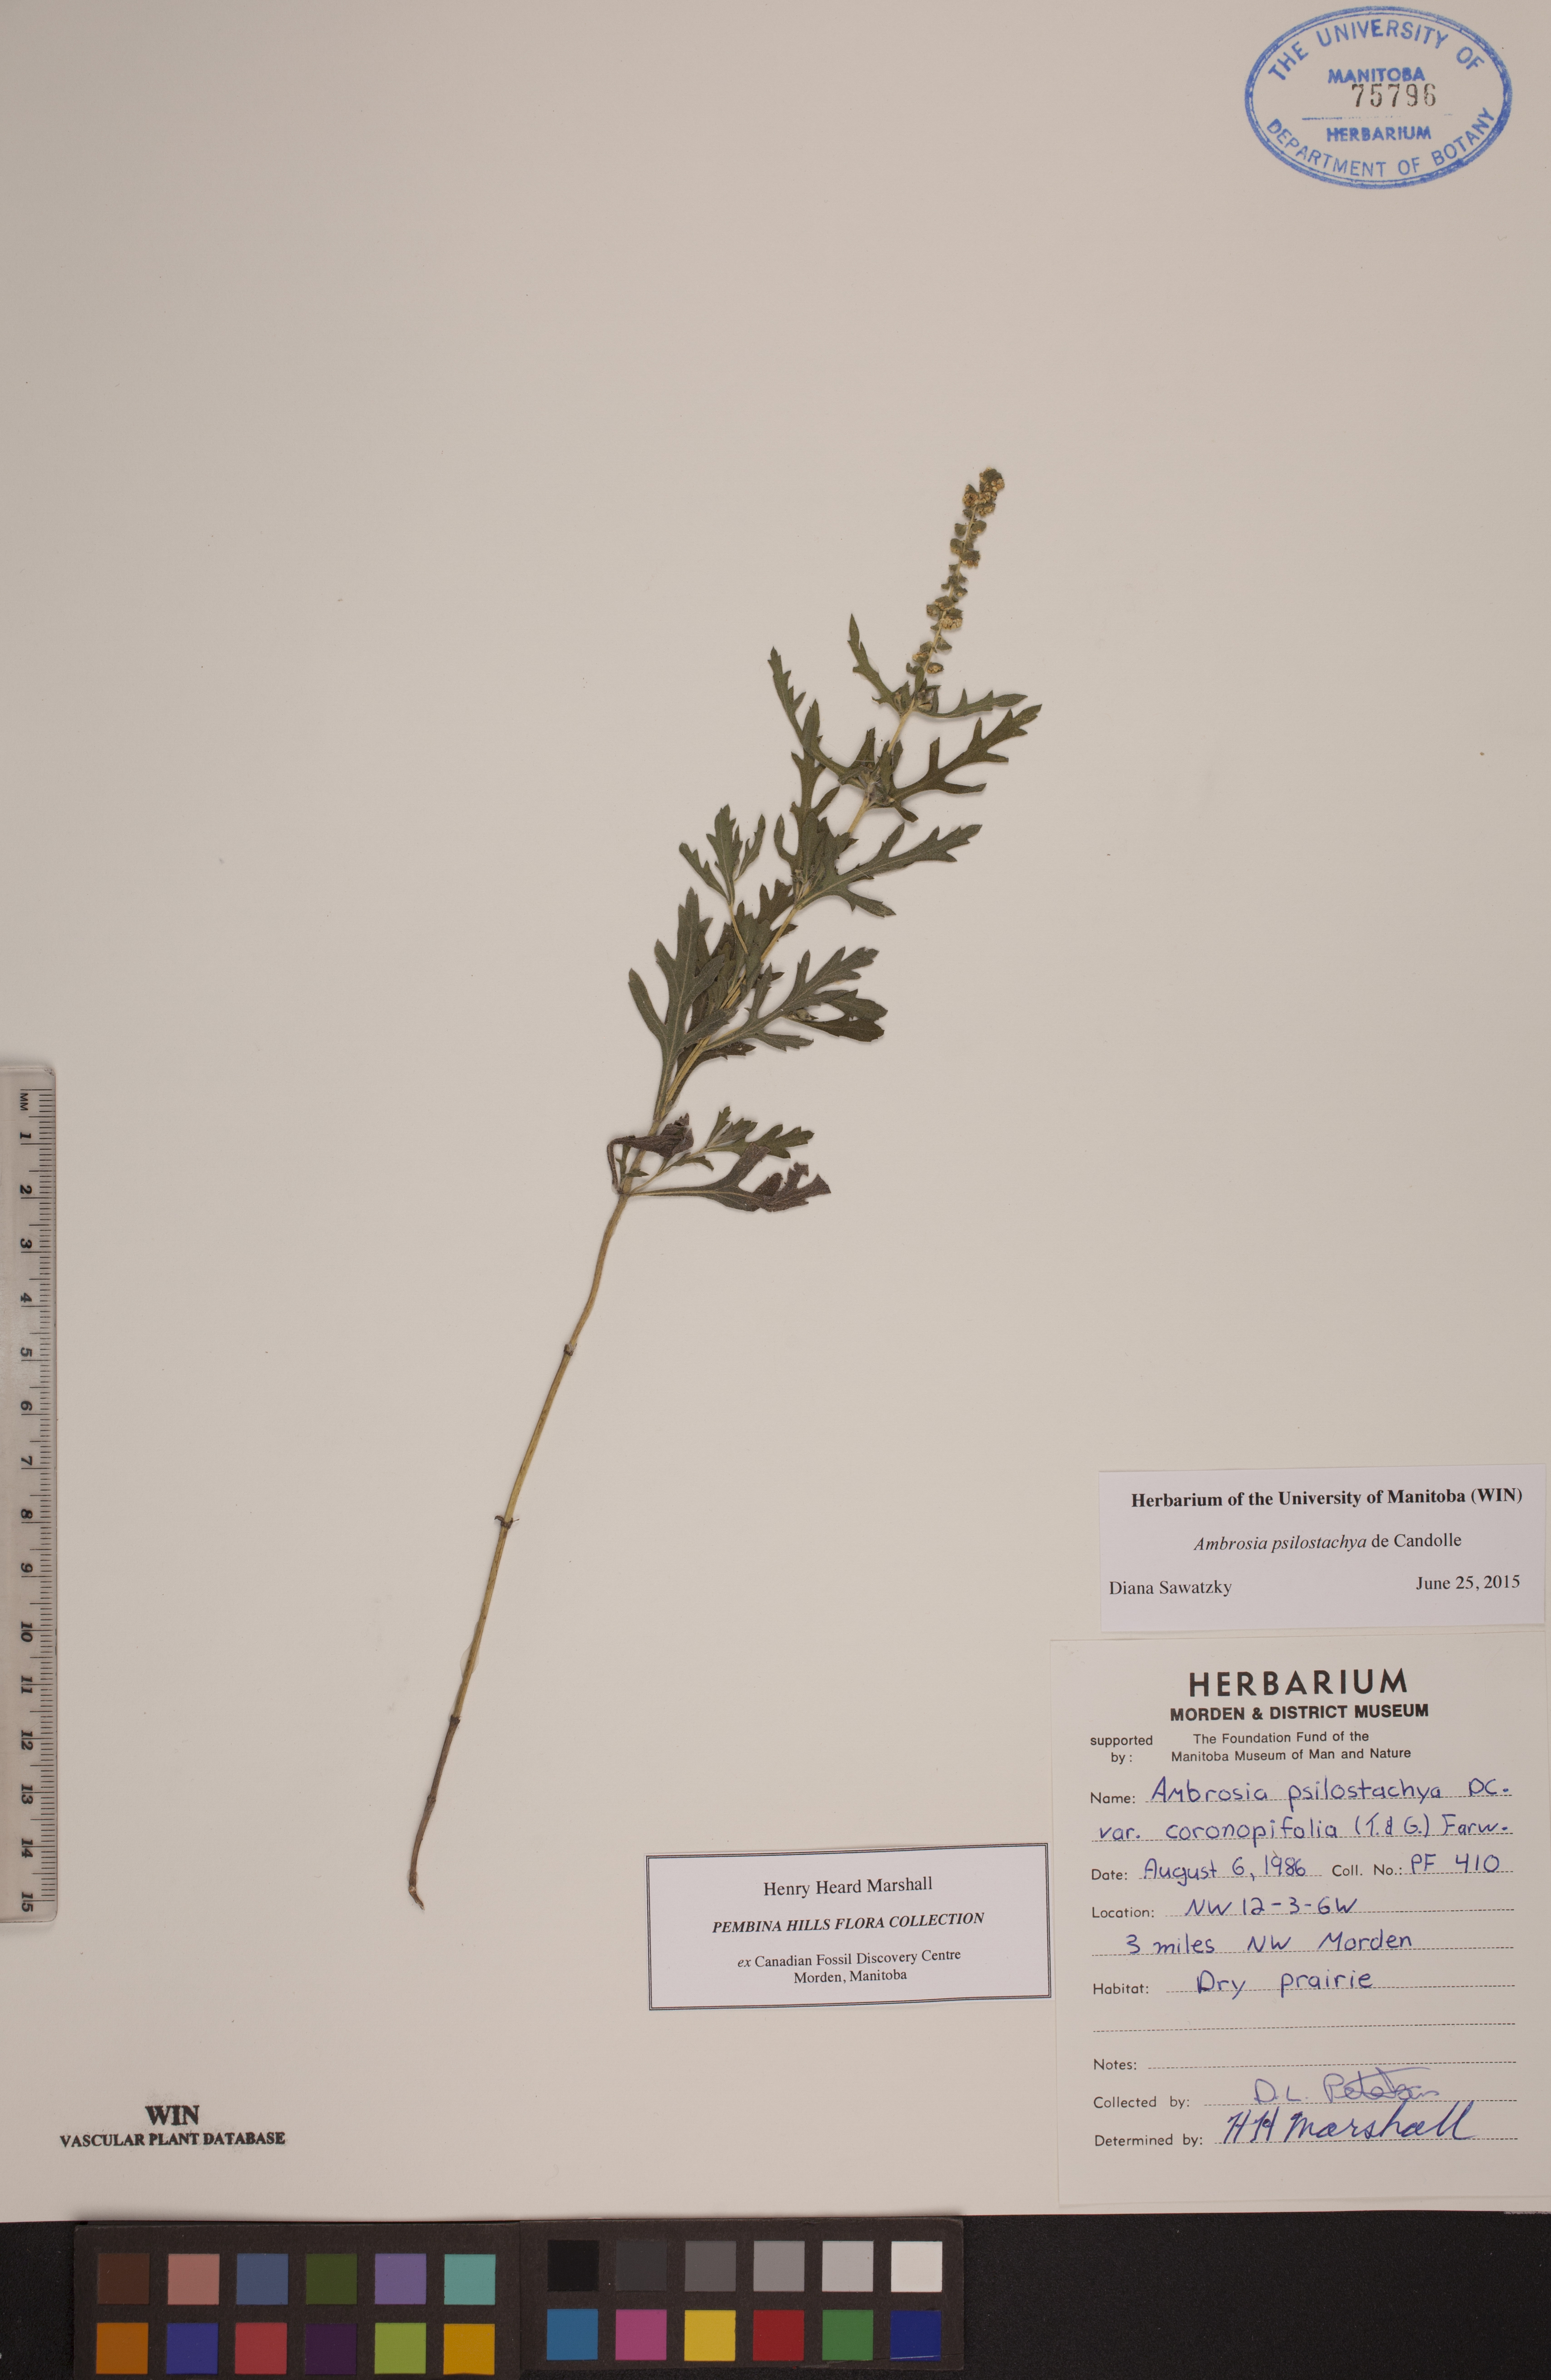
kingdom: Plantae
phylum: Tracheophyta
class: Magnoliopsida
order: Asterales
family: Asteraceae
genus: Ambrosia
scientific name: Ambrosia psilostachya
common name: Perennial ragweed
